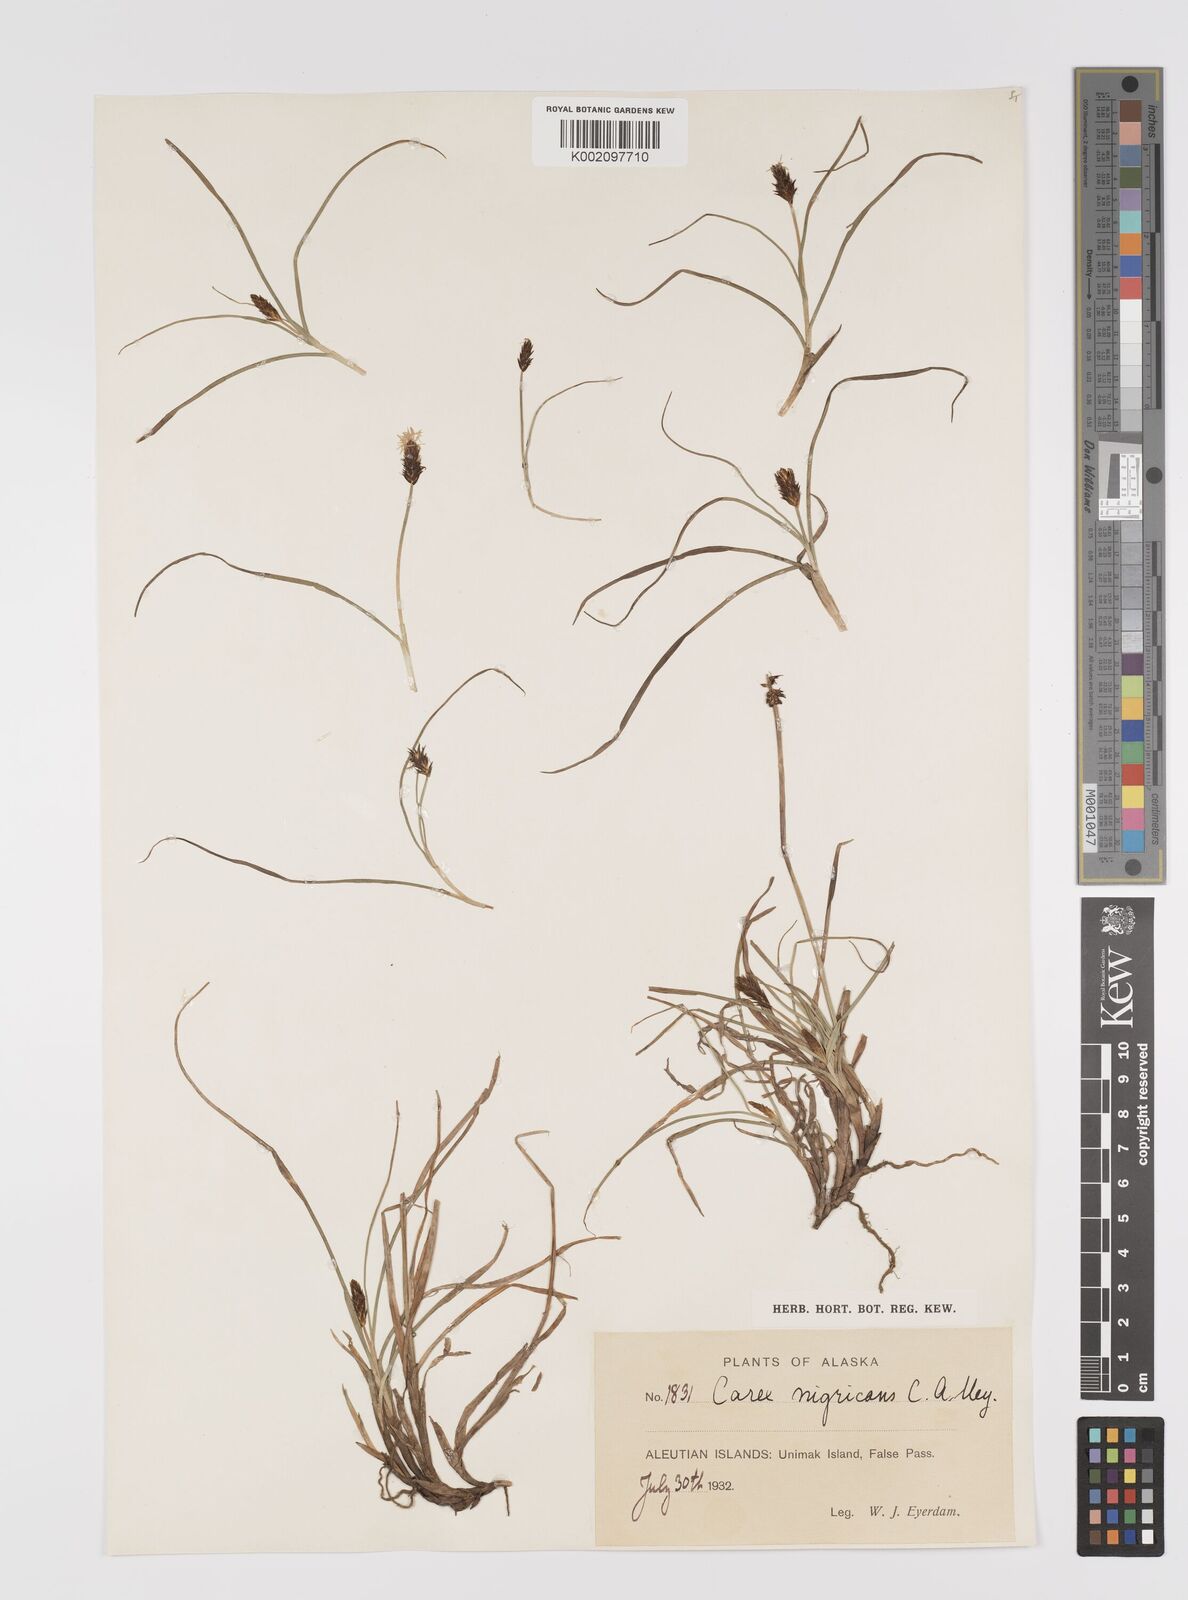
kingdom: Plantae
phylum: Tracheophyta
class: Liliopsida
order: Poales
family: Cyperaceae
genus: Carex
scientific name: Carex nardina
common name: Nard sedge
